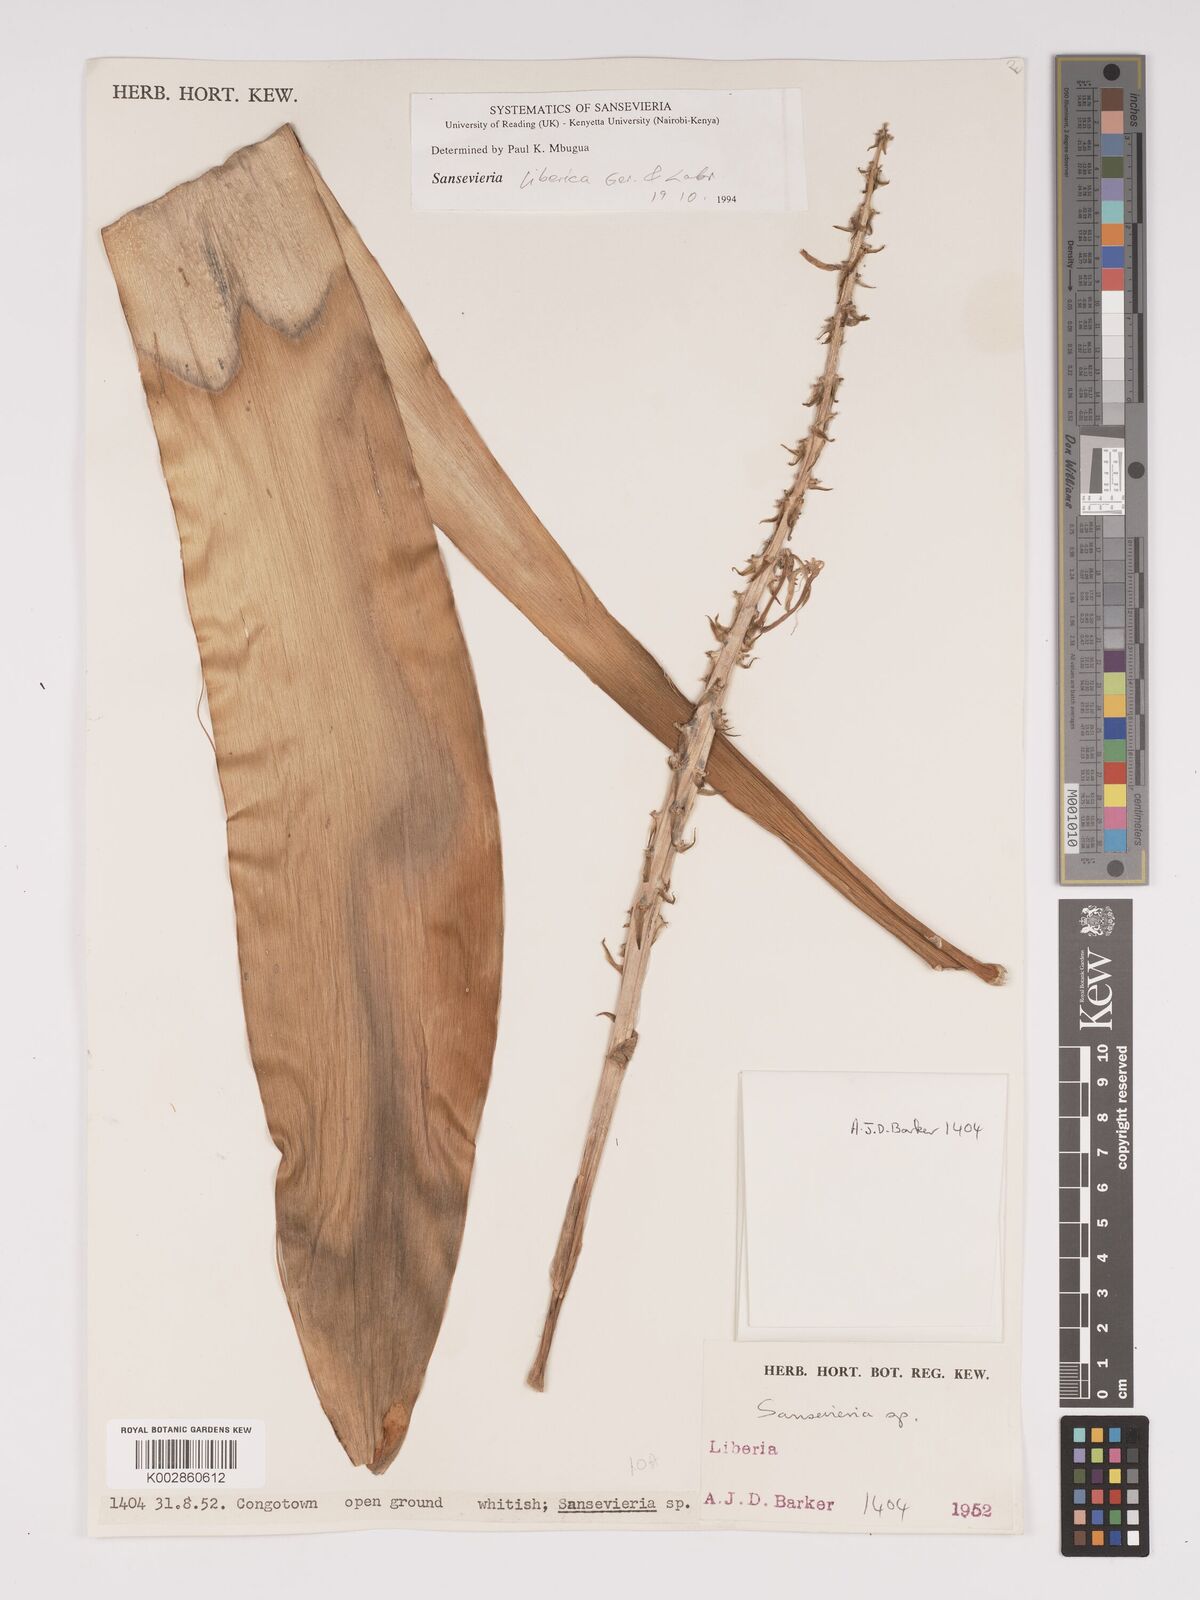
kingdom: Plantae
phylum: Tracheophyta
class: Liliopsida
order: Asparagales
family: Asparagaceae
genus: Dracaena
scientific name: Dracaena liberica
